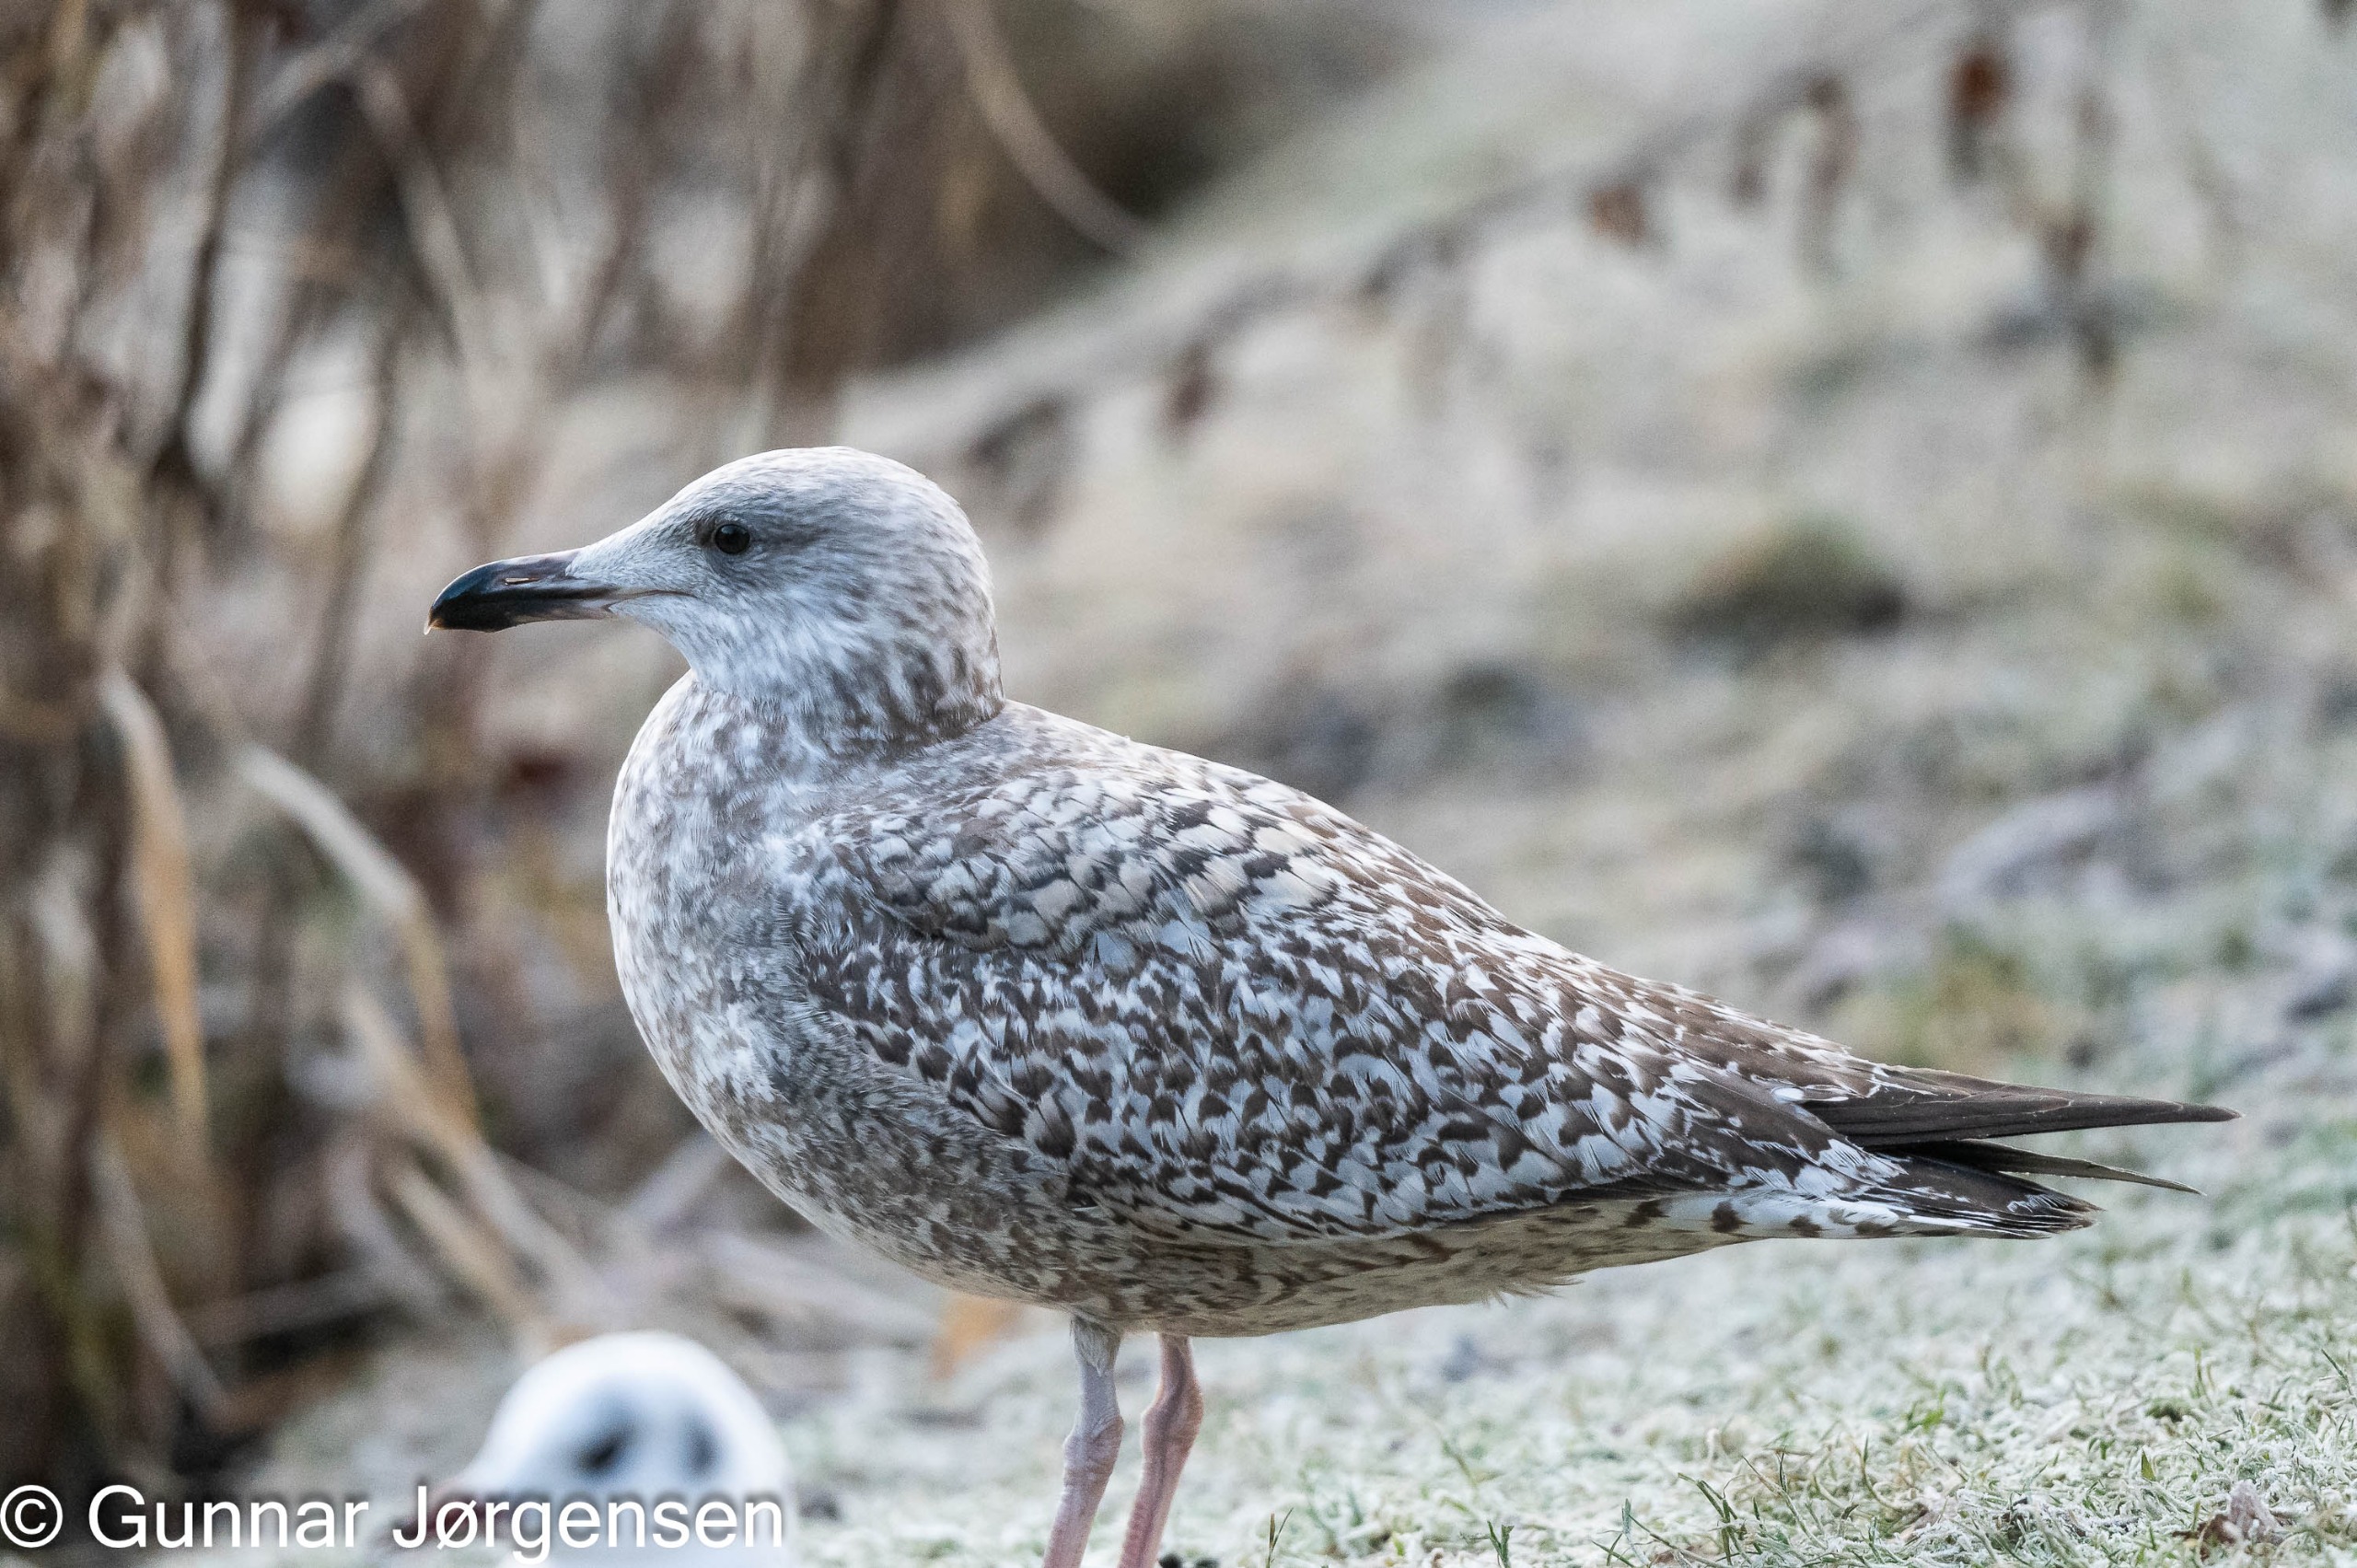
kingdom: Animalia
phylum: Chordata
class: Aves
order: Charadriiformes
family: Laridae
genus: Larus
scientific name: Larus argentatus
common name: Sølvmåge
